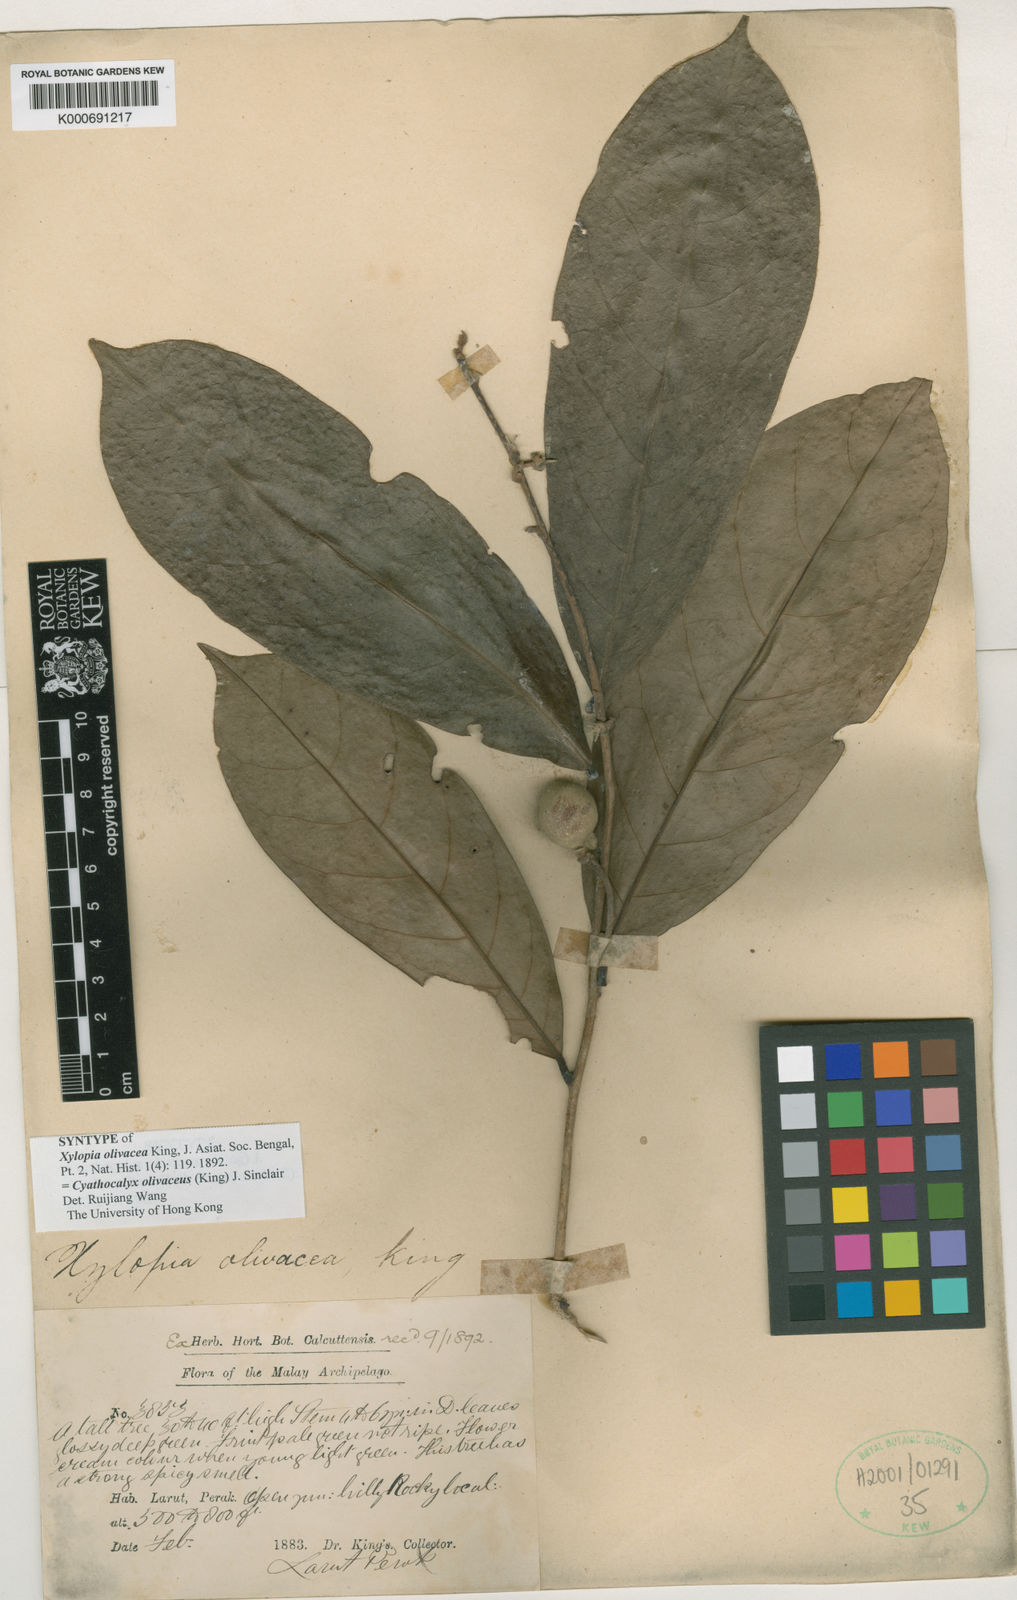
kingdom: Plantae
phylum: Tracheophyta
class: Magnoliopsida
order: Magnoliales
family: Annonaceae
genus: Drepananthus
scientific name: Drepananthus olivaceus
